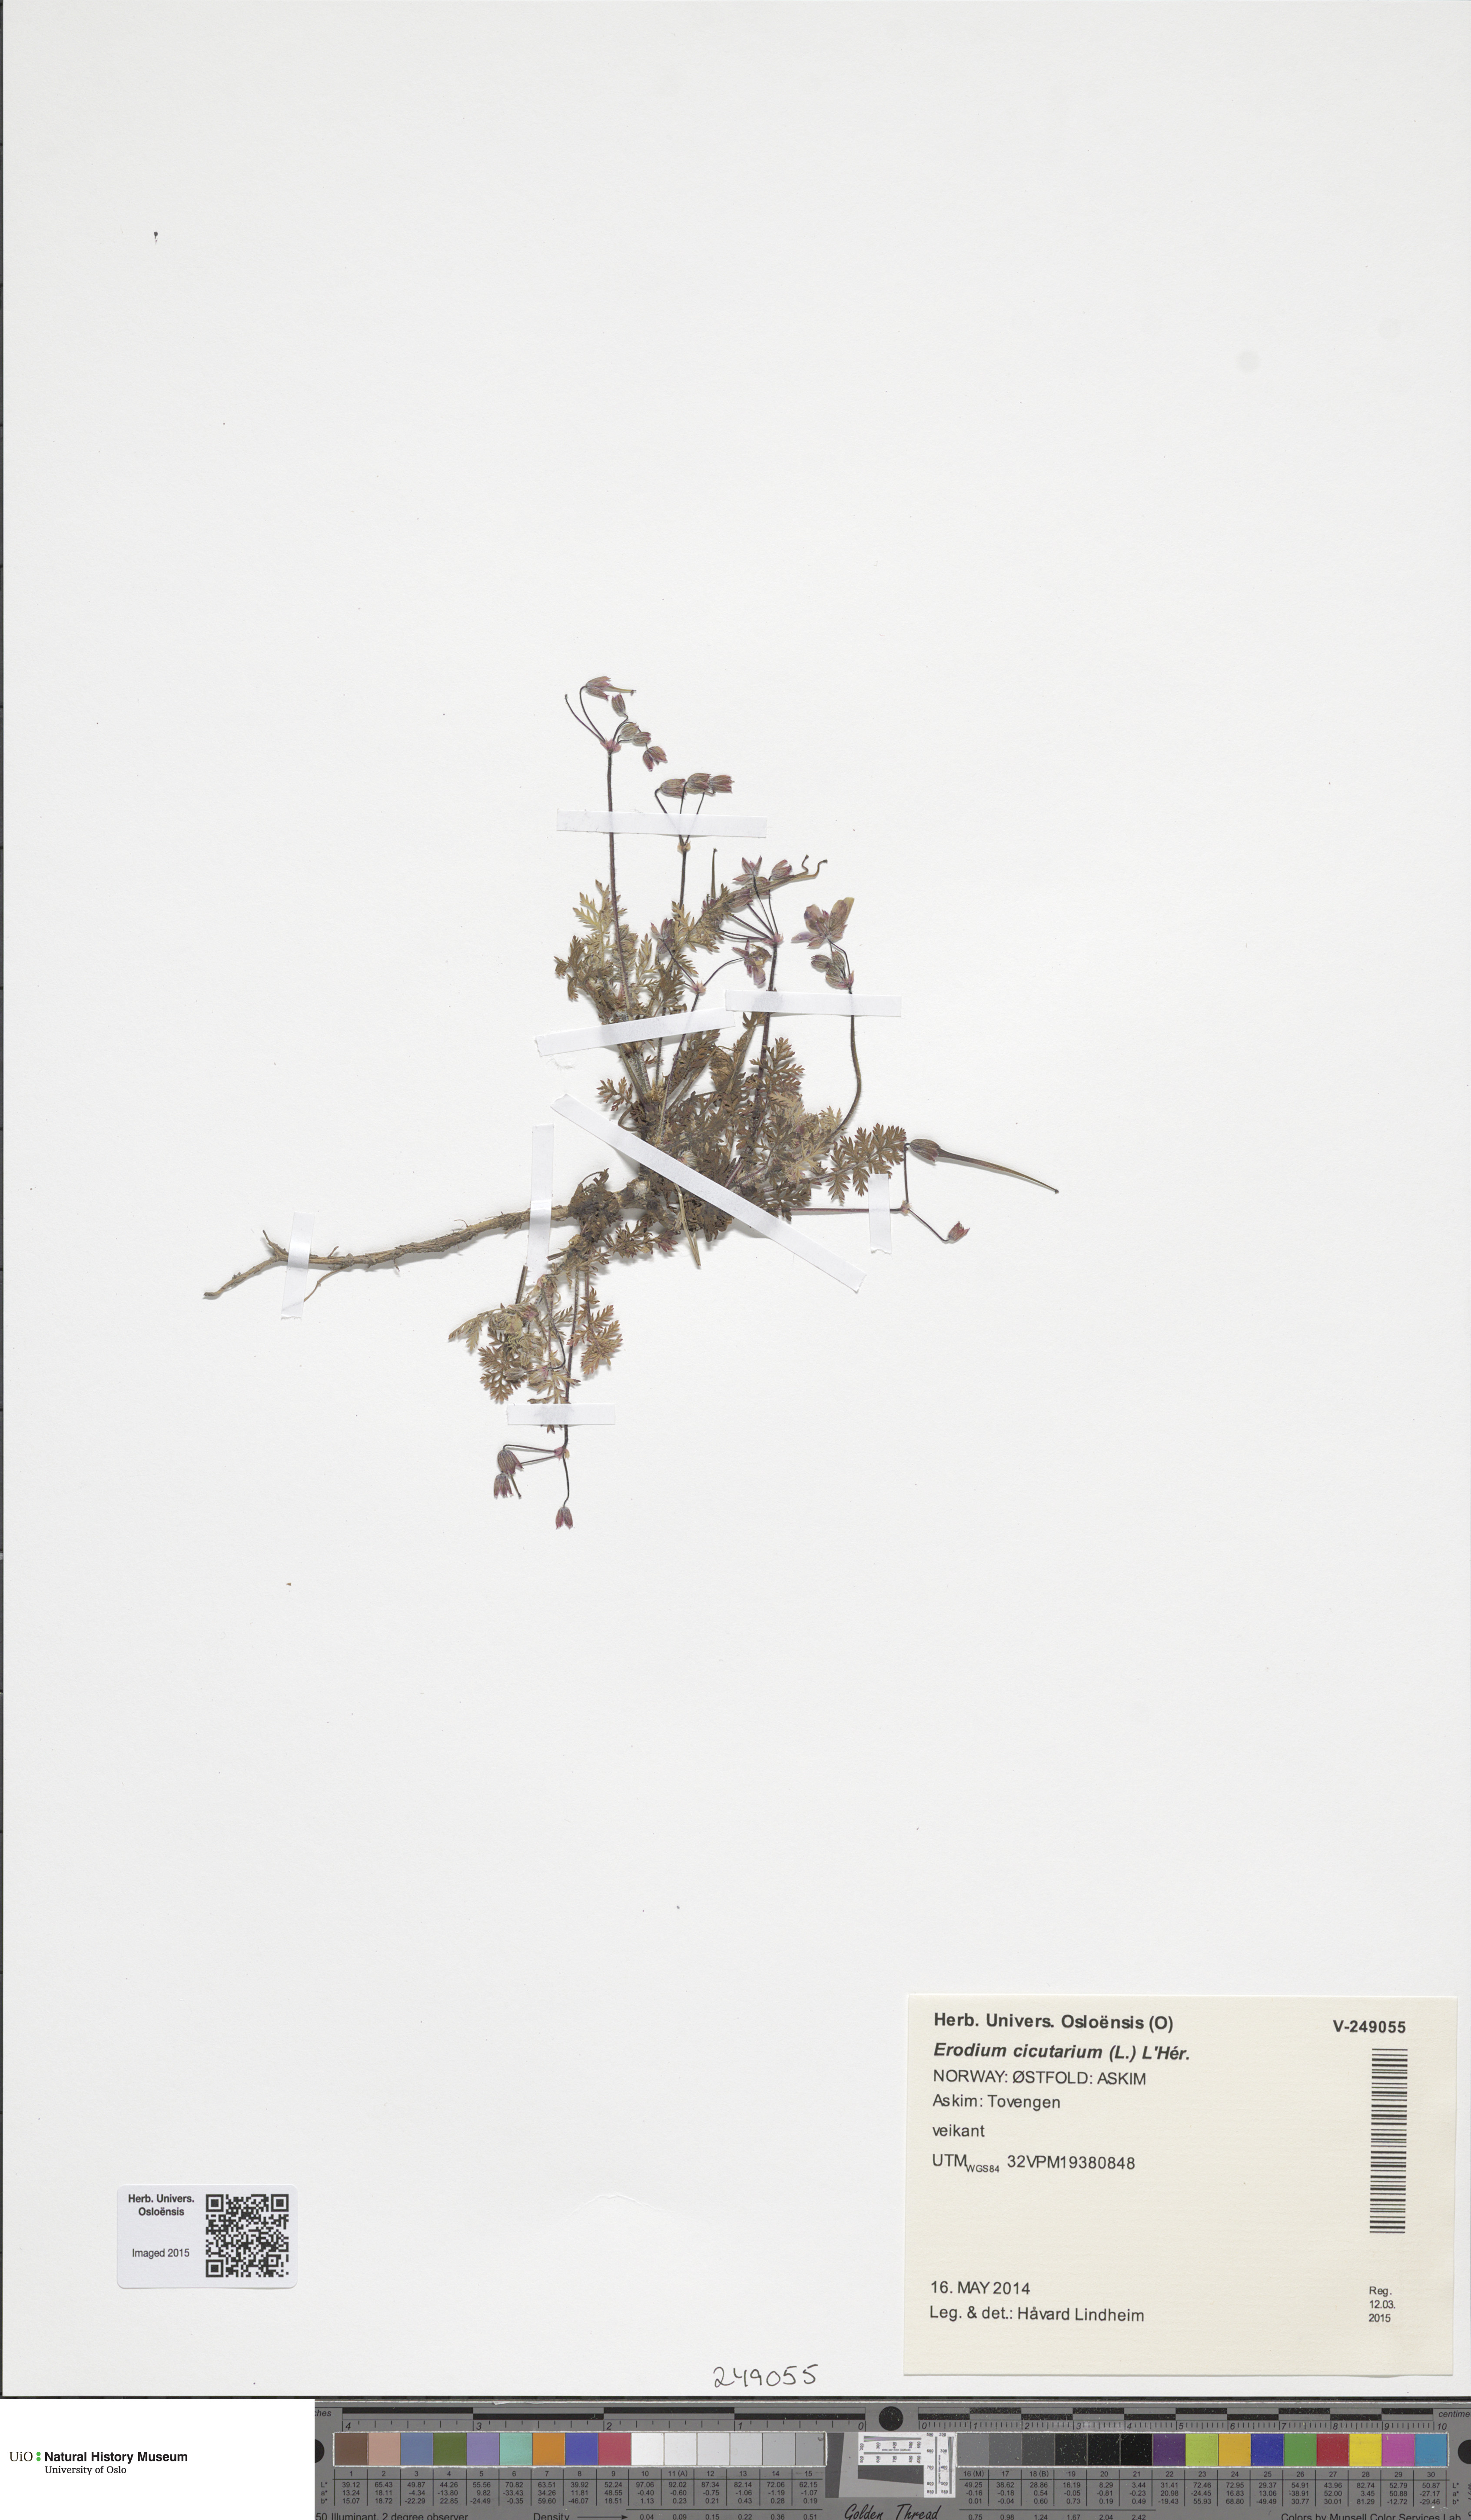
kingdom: Plantae
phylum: Tracheophyta
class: Magnoliopsida
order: Geraniales
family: Geraniaceae
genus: Erodium
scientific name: Erodium cicutarium
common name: Common stork's-bill
